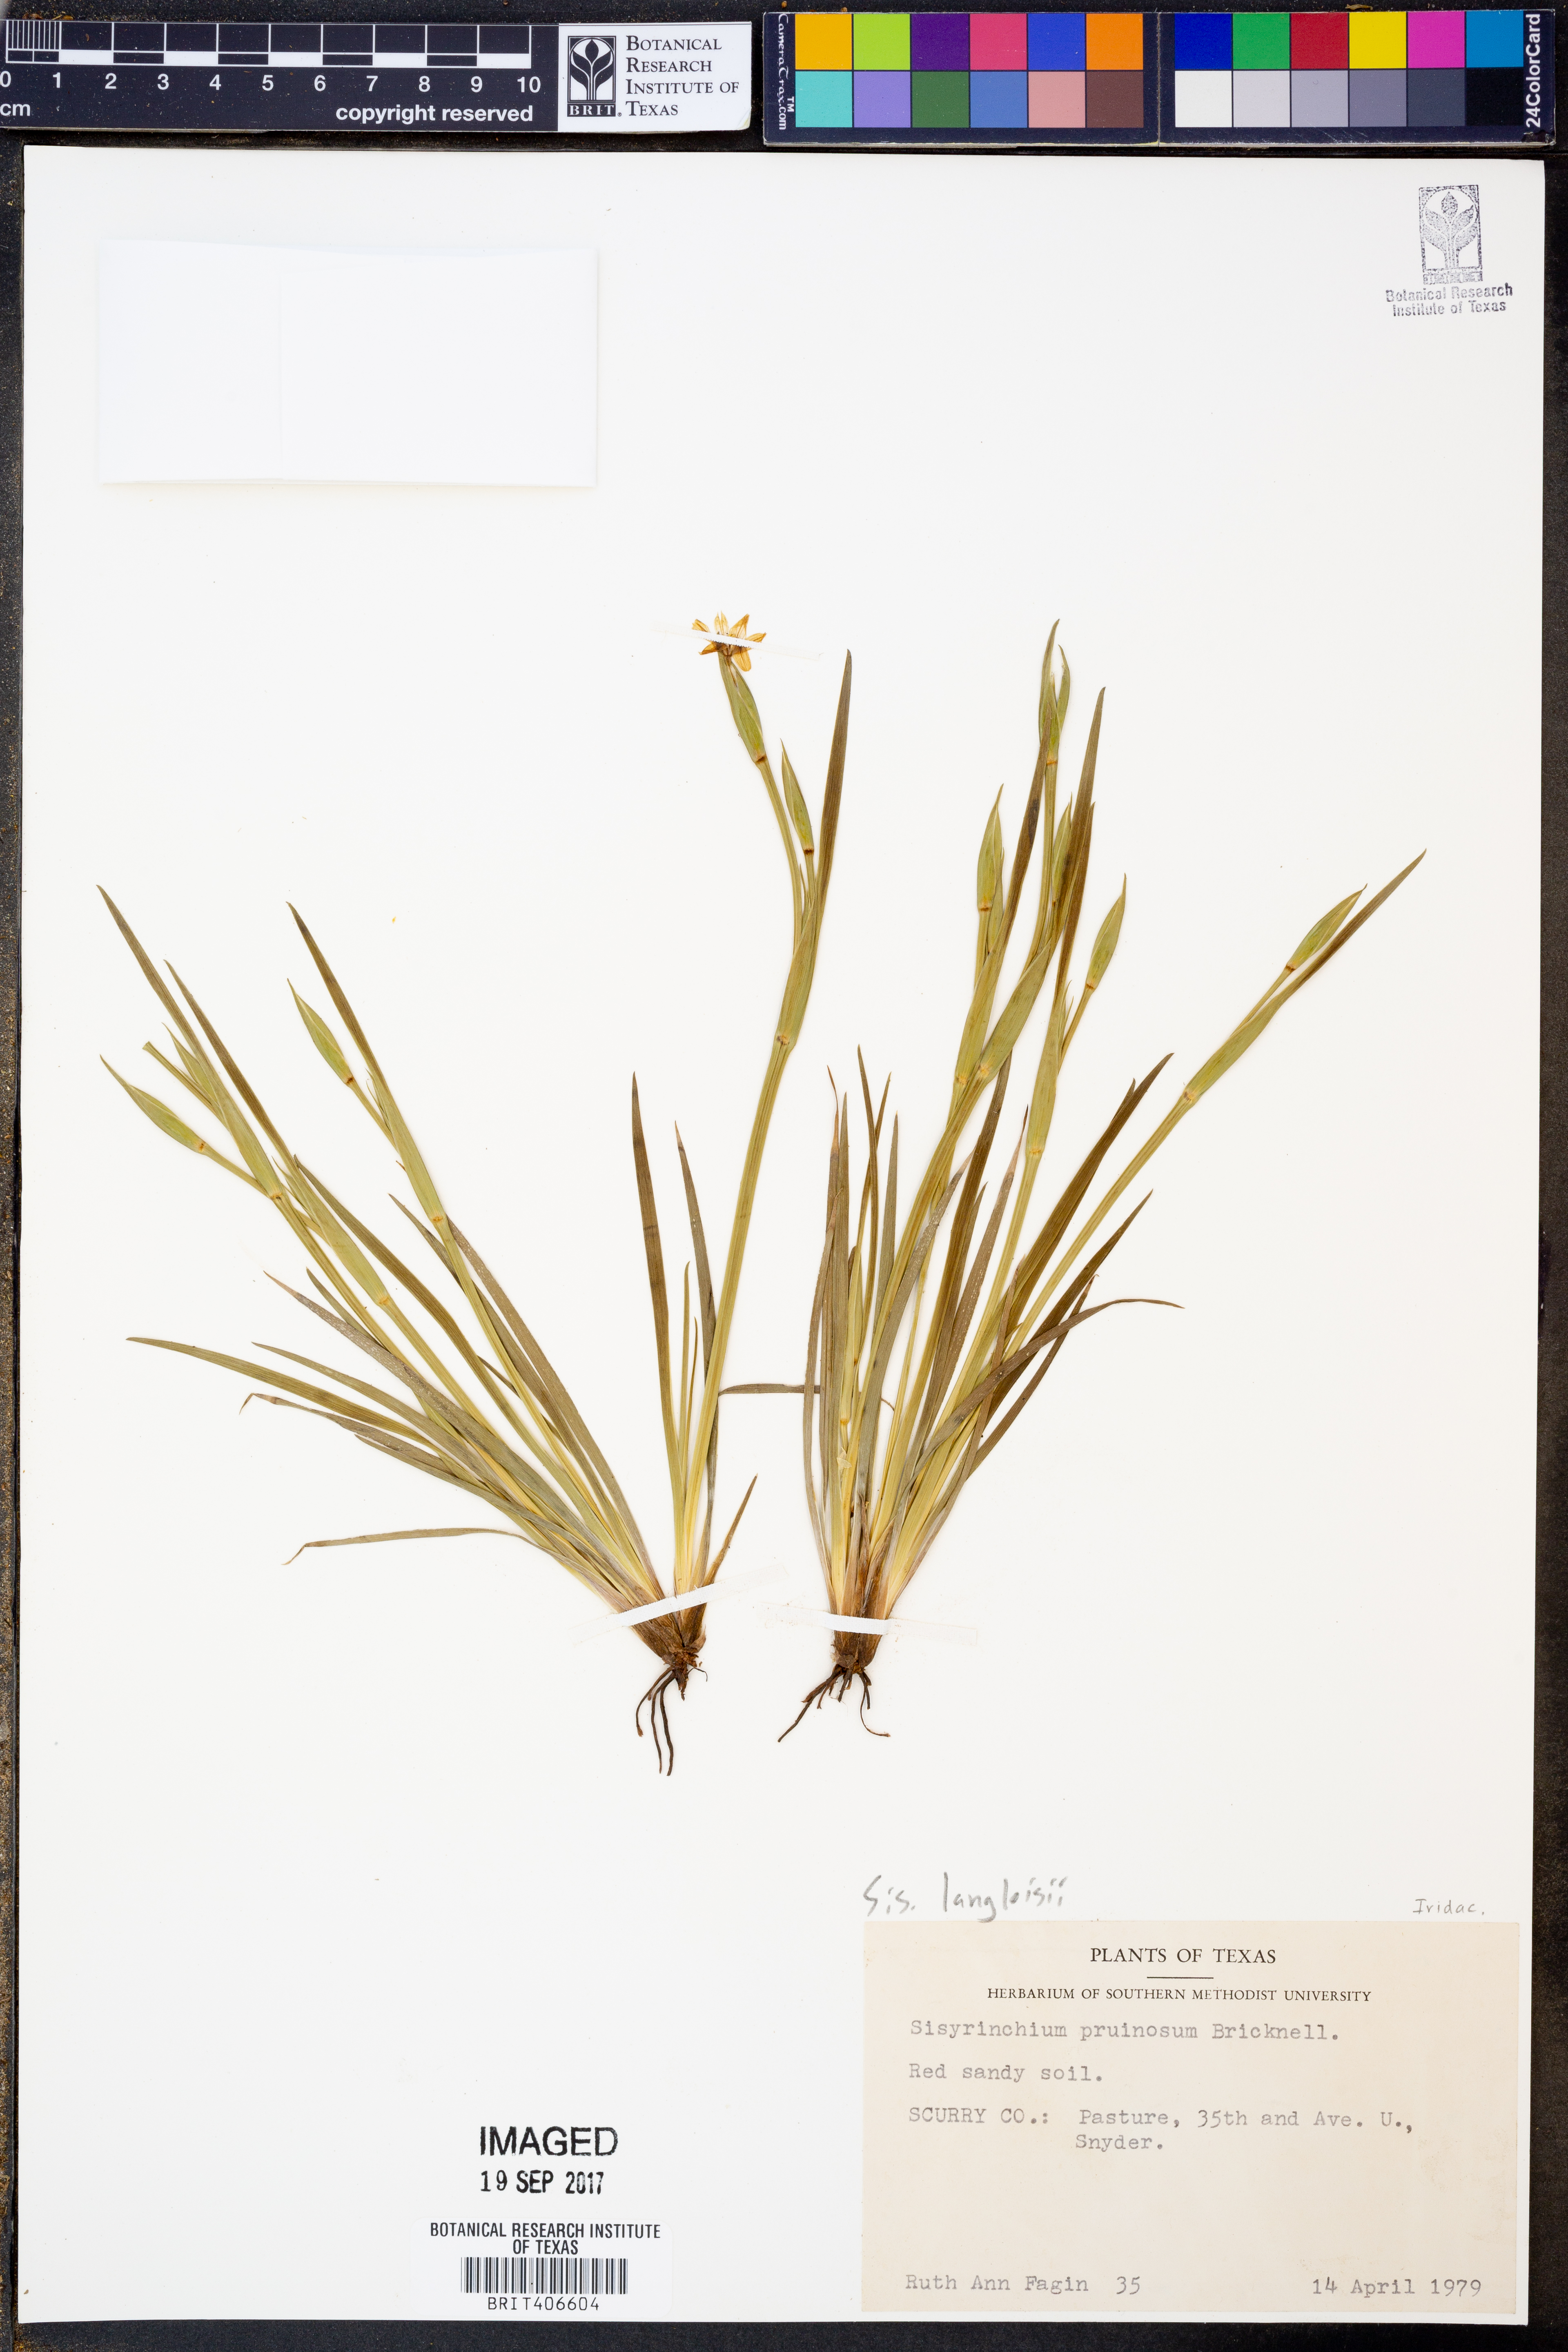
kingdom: Plantae
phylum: Tracheophyta
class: Liliopsida
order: Asparagales
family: Iridaceae
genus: Sisyrinchium
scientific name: Sisyrinchium langloisii
